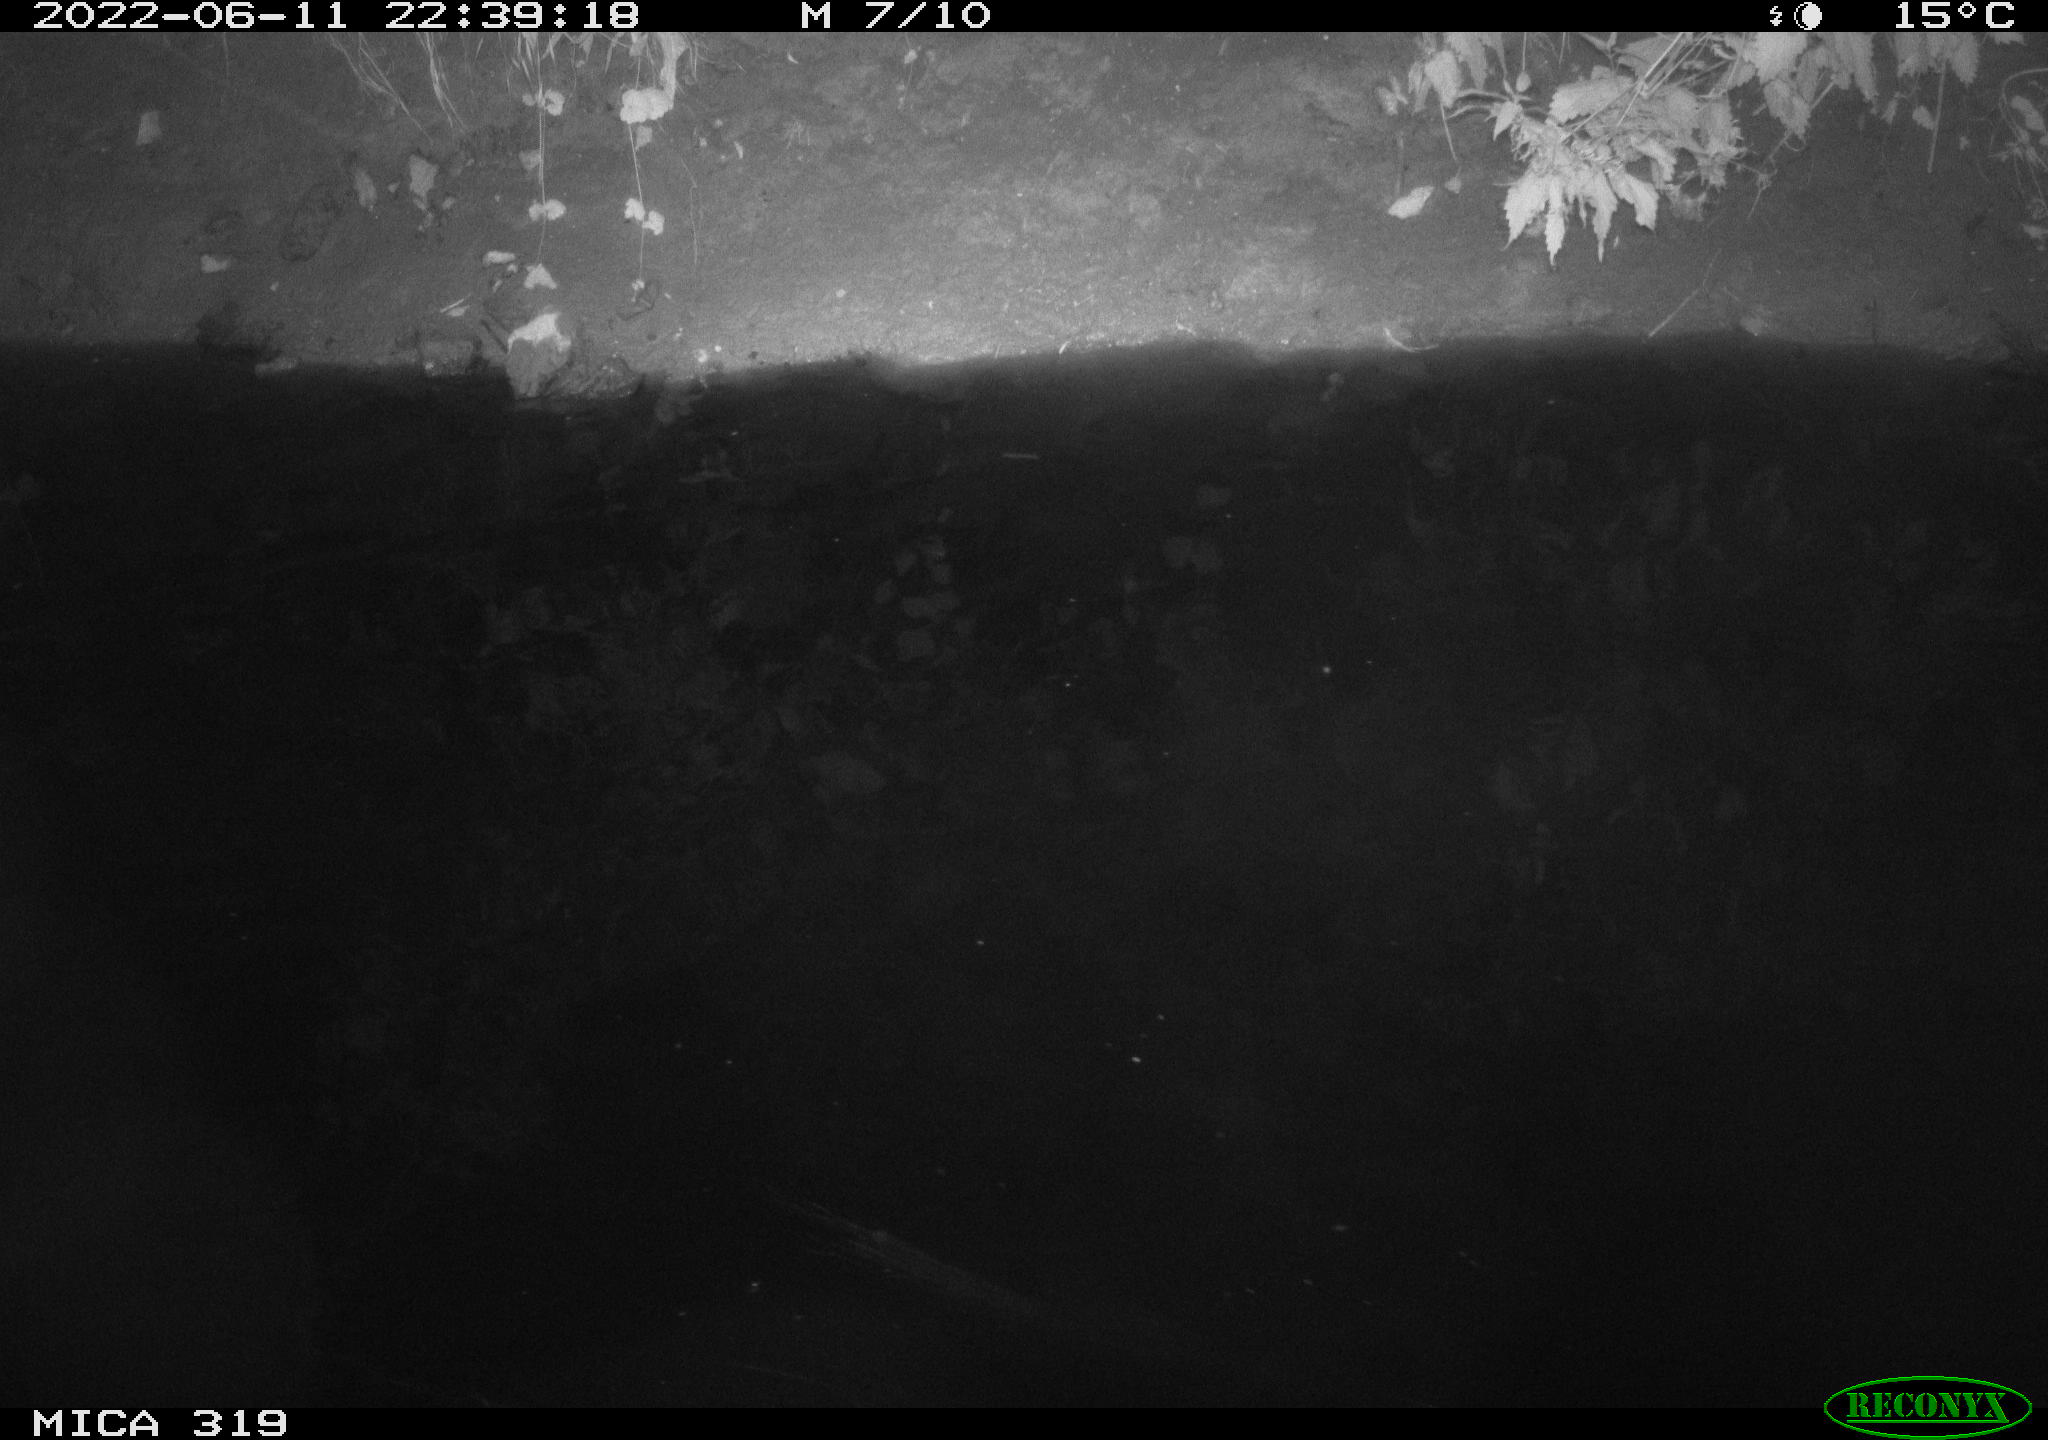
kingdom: Animalia
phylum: Chordata
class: Aves
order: Anseriformes
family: Anatidae
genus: Anas
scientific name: Anas
